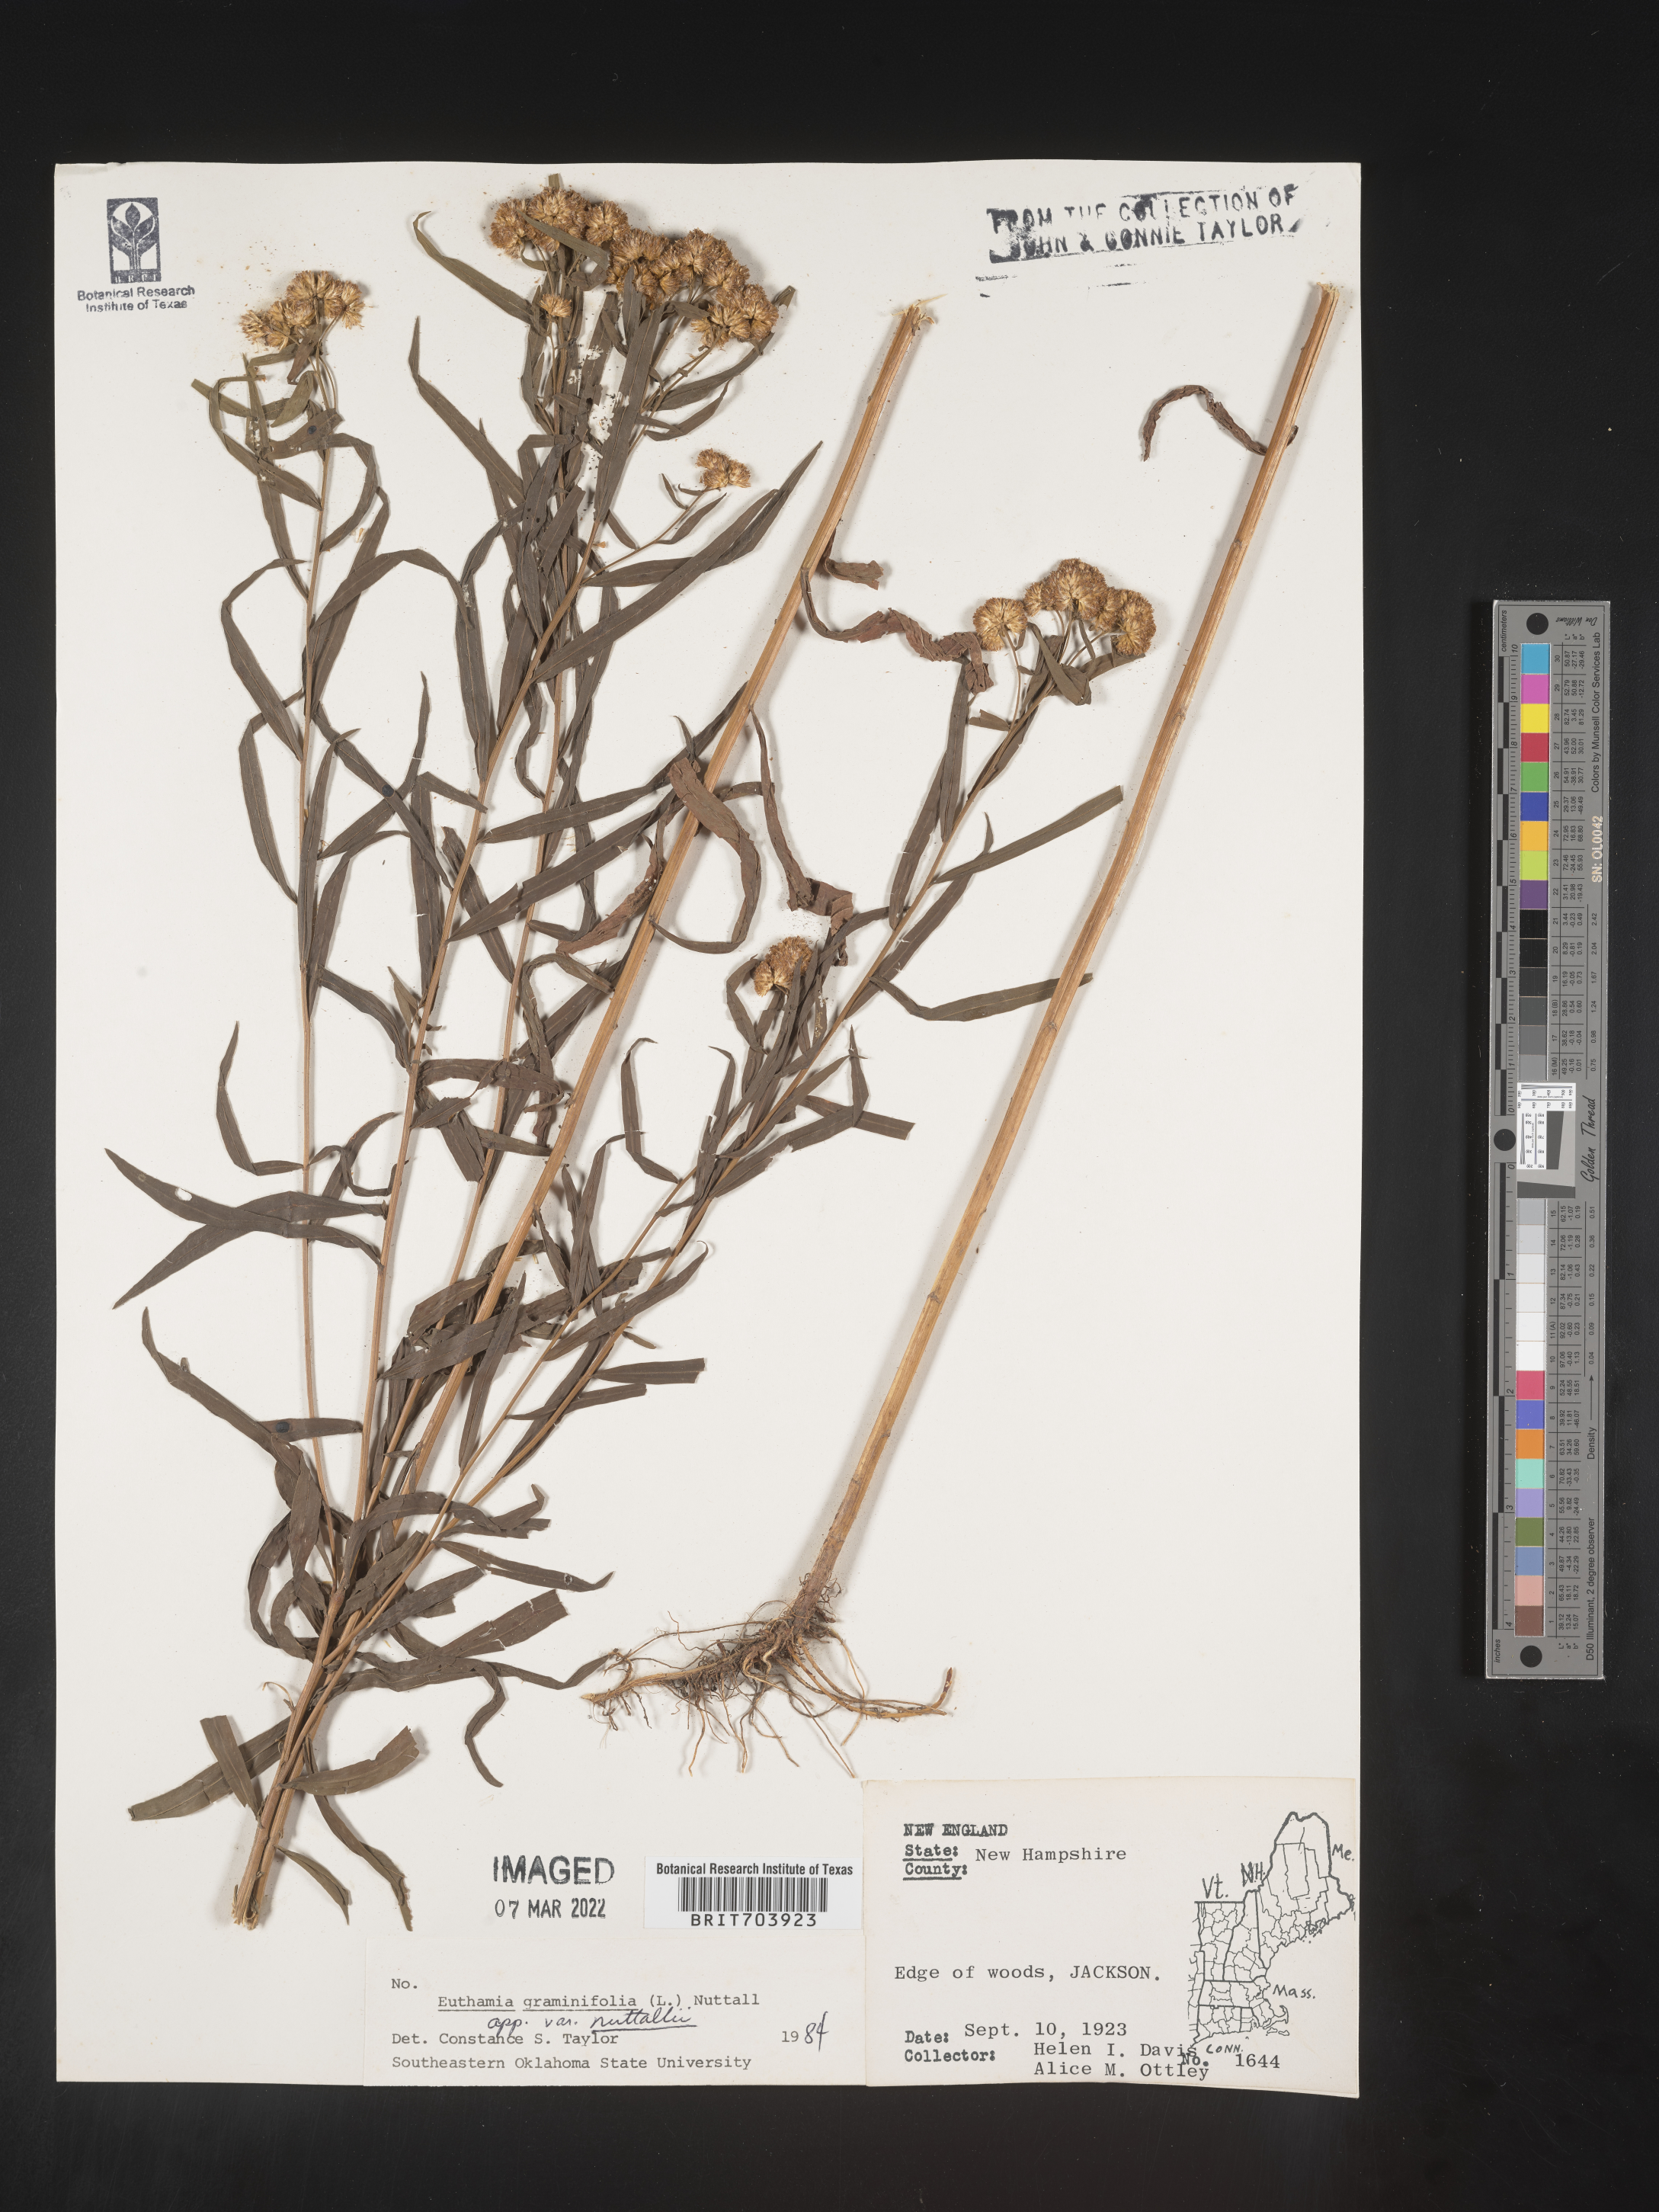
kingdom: Plantae
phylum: Tracheophyta
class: Magnoliopsida
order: Asterales
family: Asteraceae
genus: Euthamia
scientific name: Euthamia graminifolia
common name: Common goldentop
